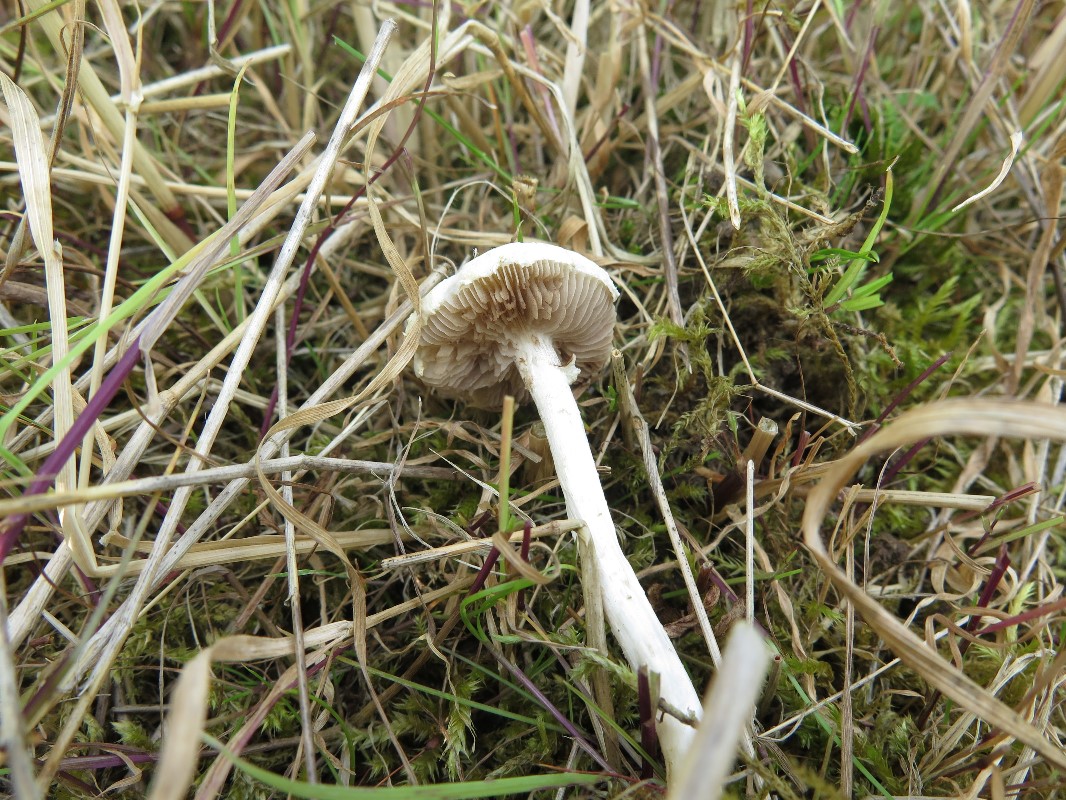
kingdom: Fungi
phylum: Basidiomycota
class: Agaricomycetes
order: Agaricales
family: Strophariaceae
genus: Agrocybe
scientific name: Agrocybe dura
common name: fastkødet agerhat
